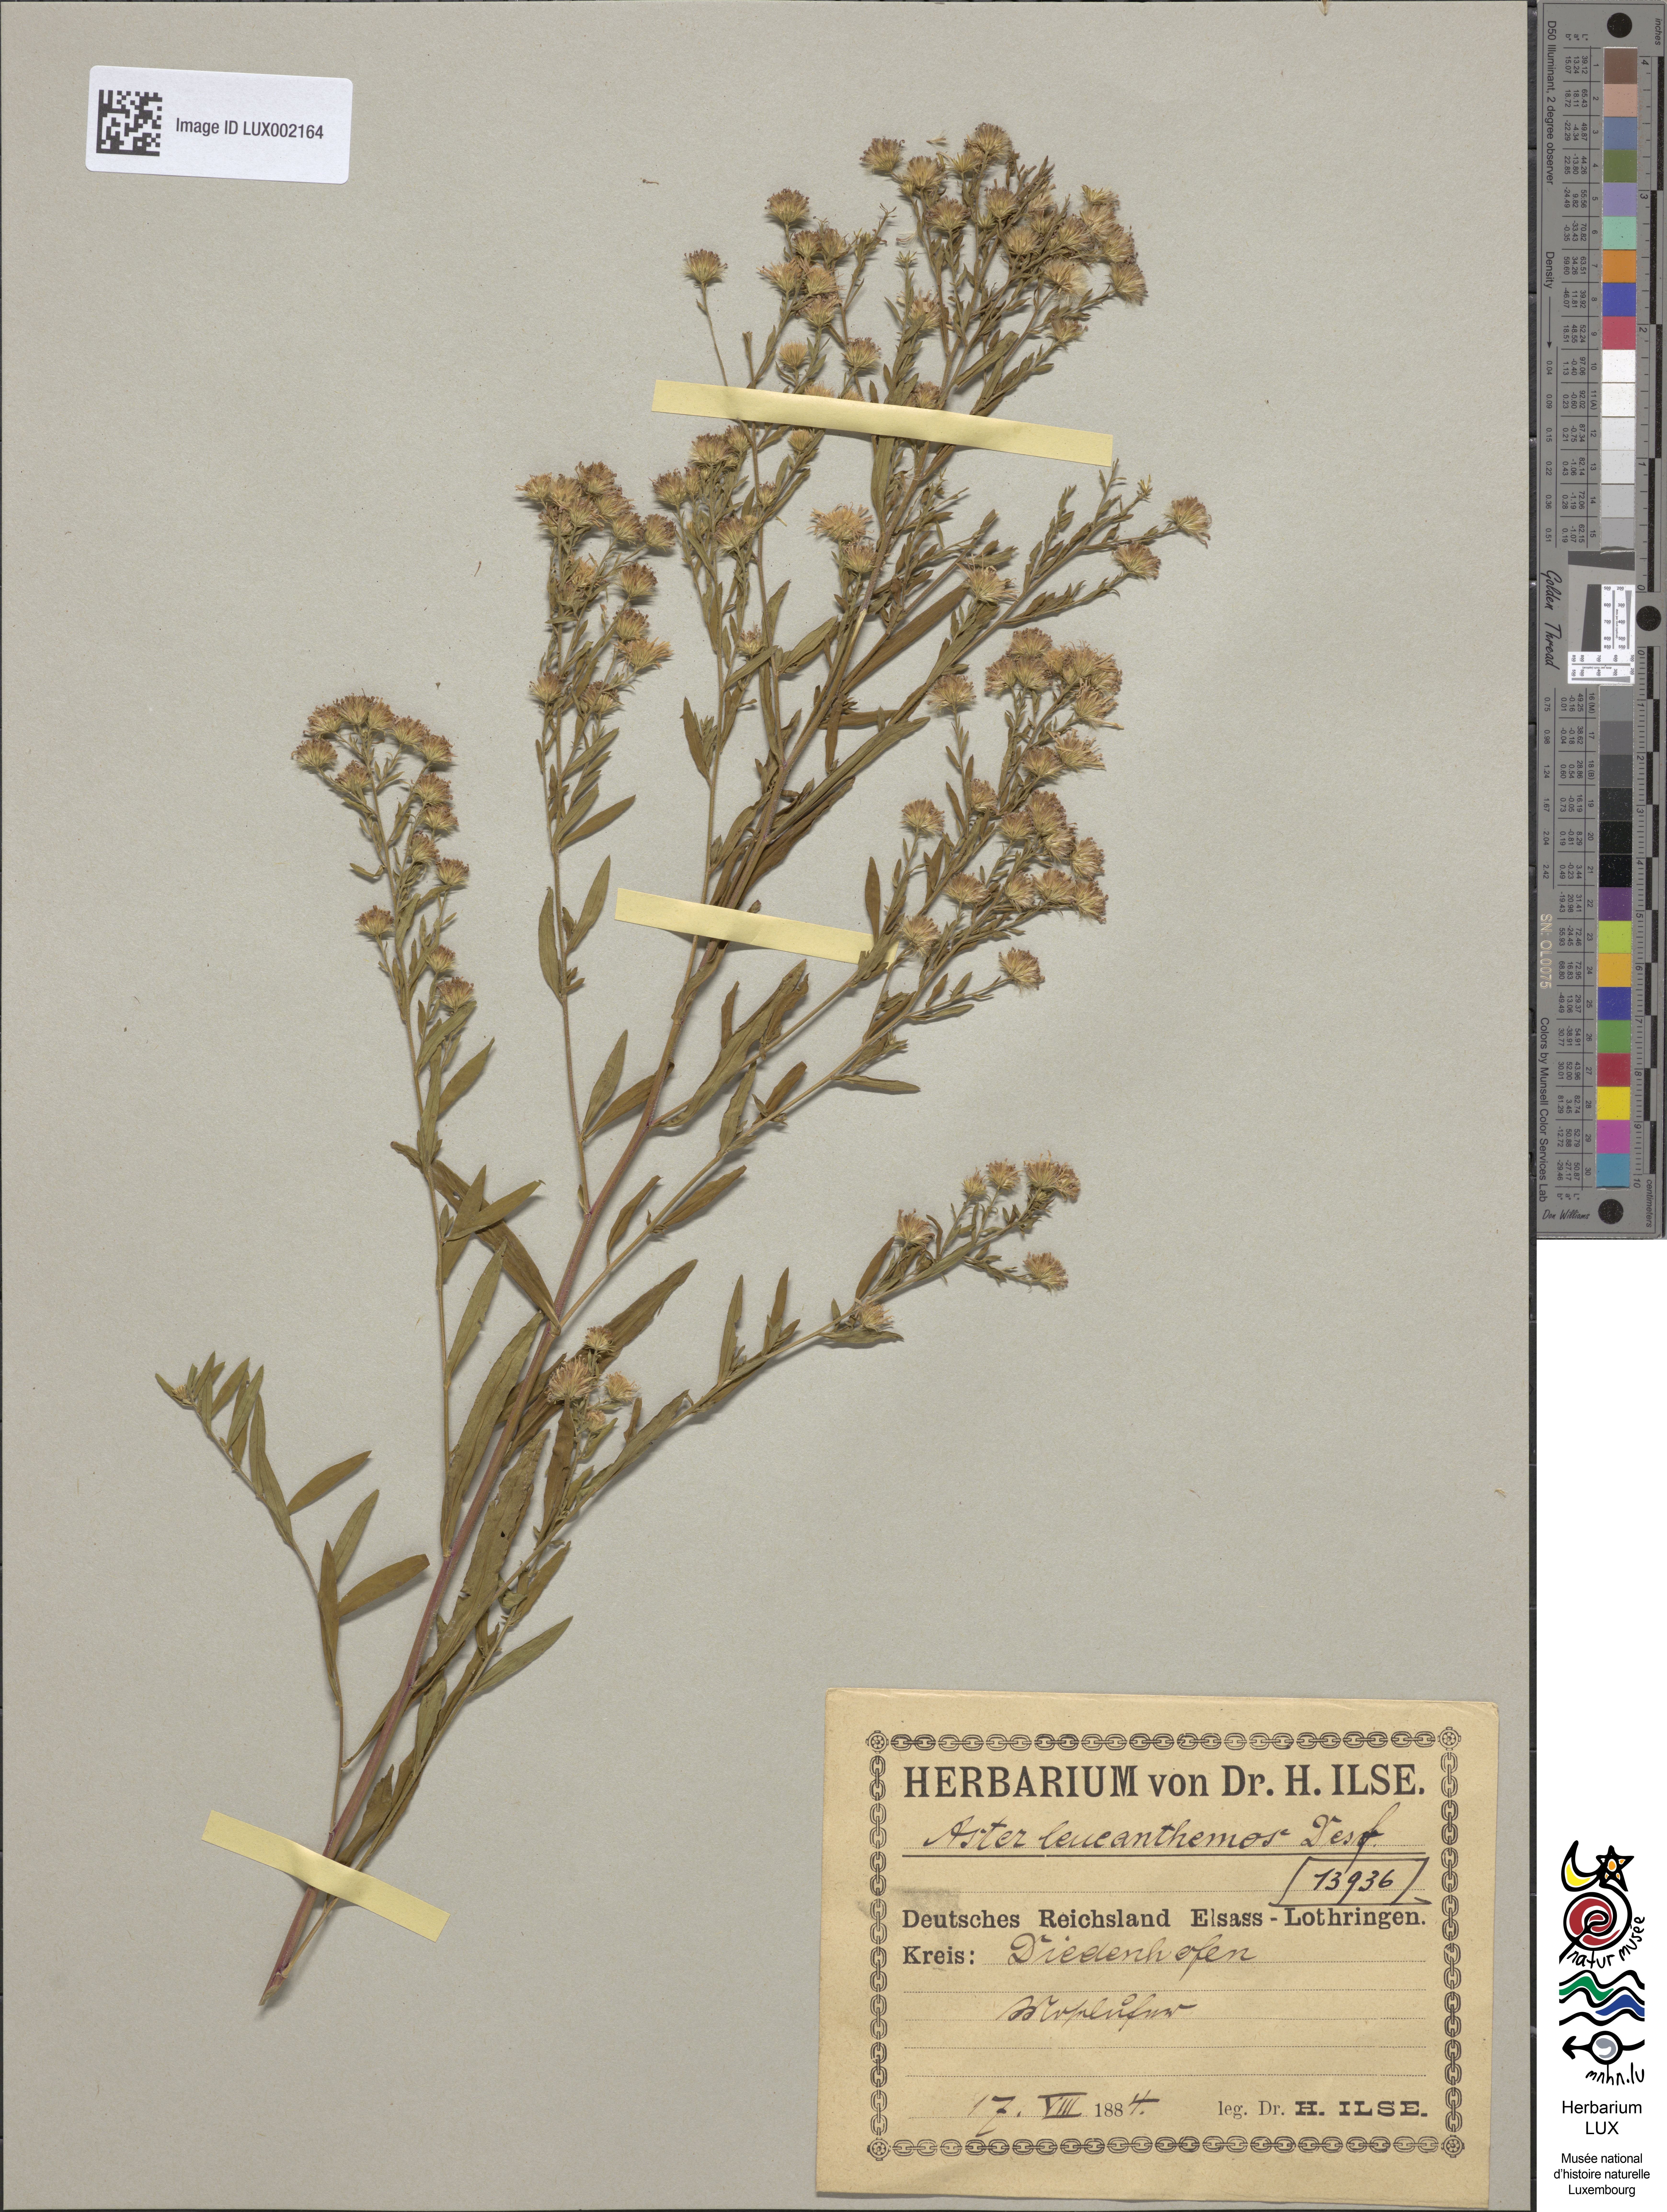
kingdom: Plantae
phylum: Tracheophyta
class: Magnoliopsida
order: Asterales
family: Asteraceae
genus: Symphyotrichum
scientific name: Symphyotrichum tradescantii
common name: Shore aster
